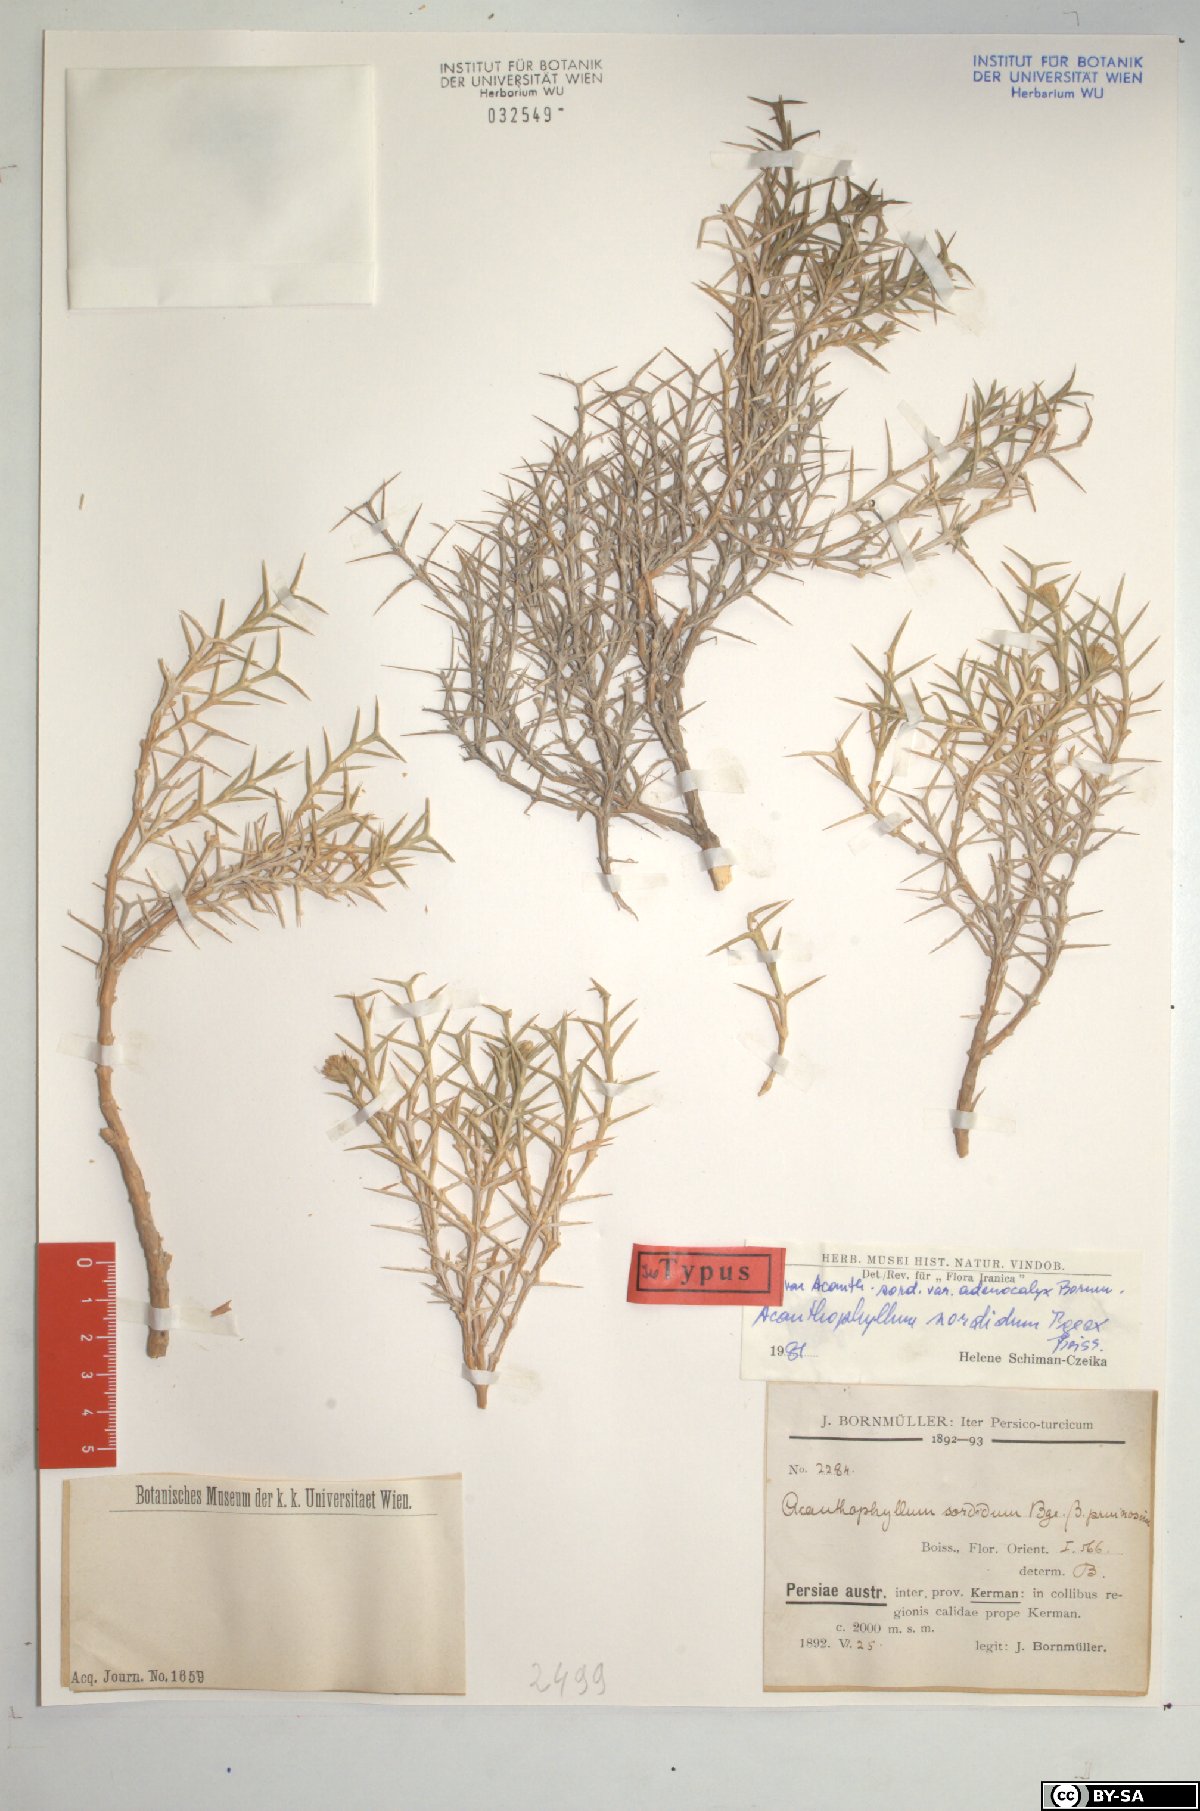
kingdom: Plantae
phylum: Tracheophyta
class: Magnoliopsida
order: Caryophyllales
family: Caryophyllaceae
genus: Acanthophyllum
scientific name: Acanthophyllum sordidum
